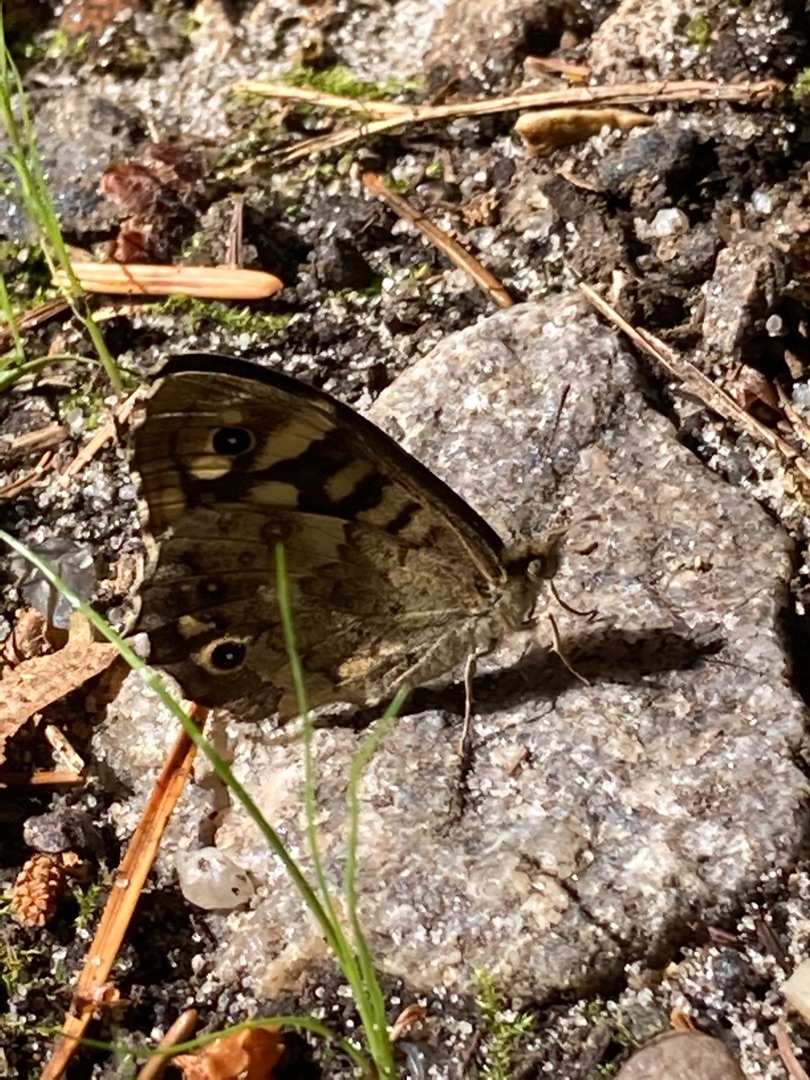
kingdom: Animalia
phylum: Arthropoda
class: Insecta
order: Lepidoptera
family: Nymphalidae
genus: Pararge
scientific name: Pararge aegeria
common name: Skovrandøje
